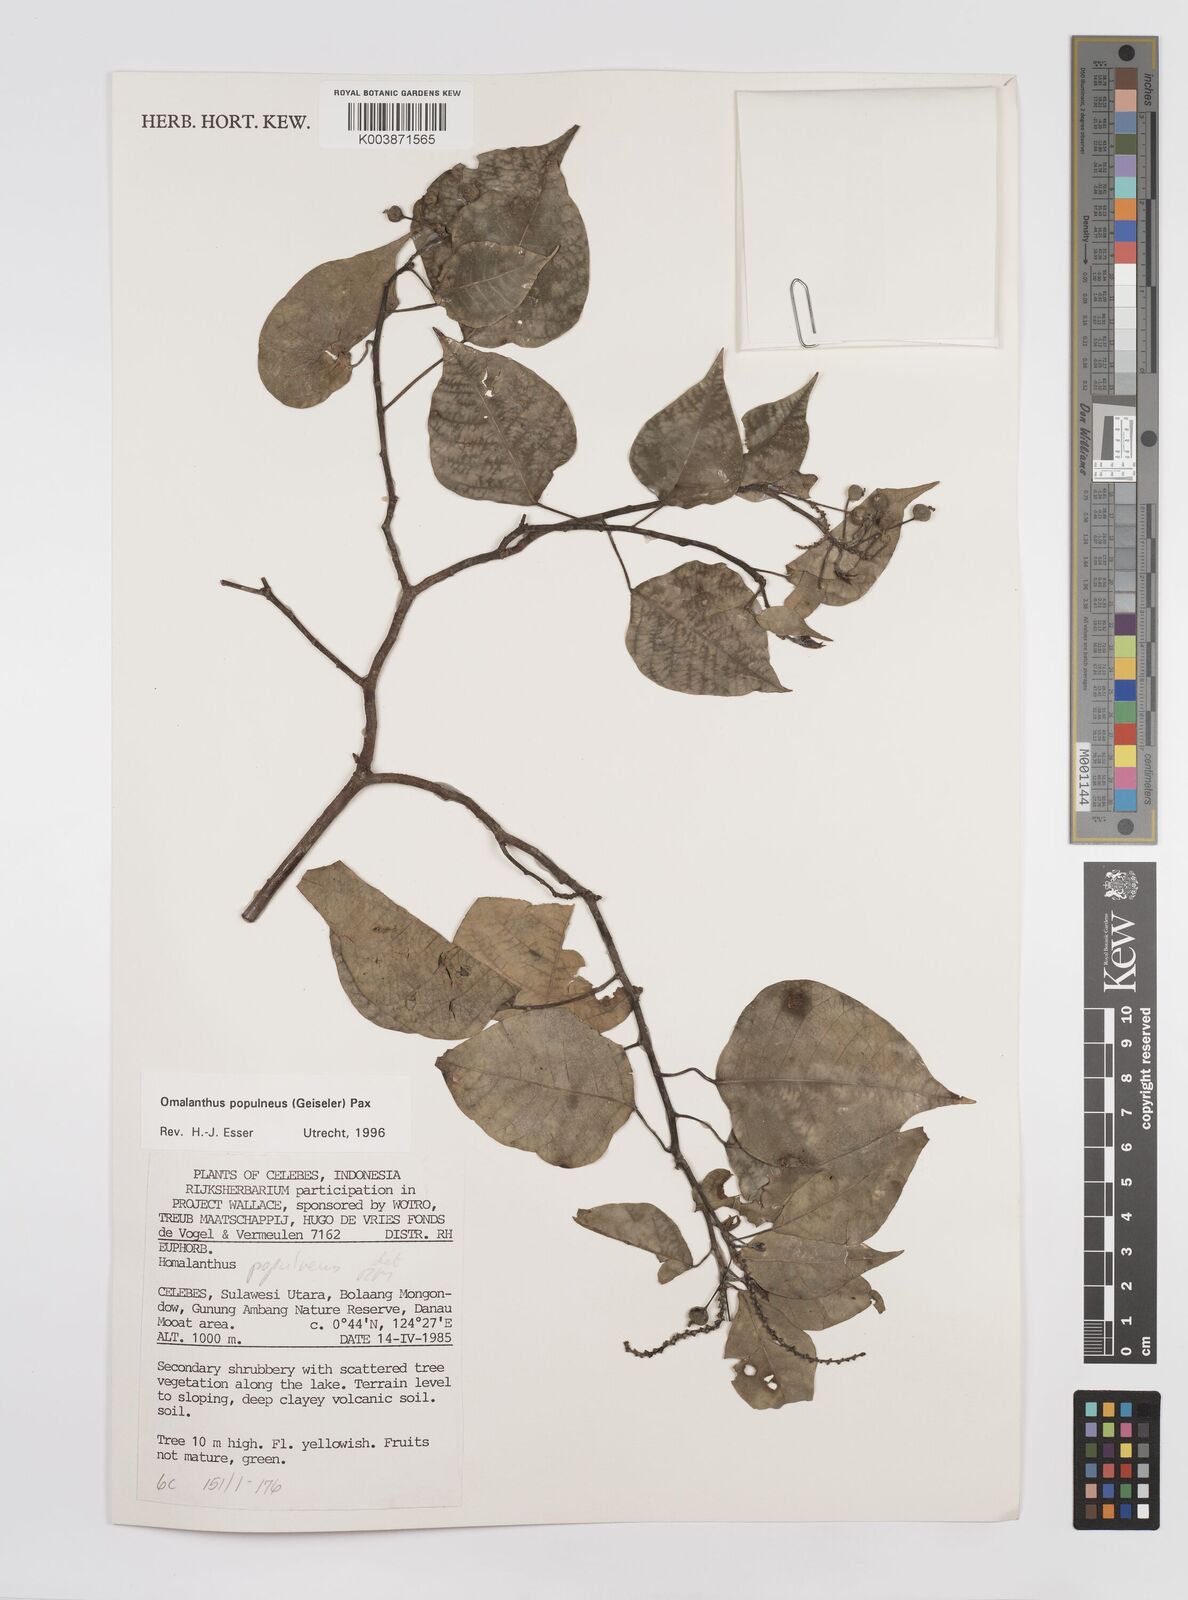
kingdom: Plantae
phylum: Tracheophyta
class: Magnoliopsida
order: Malpighiales
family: Euphorbiaceae
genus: Homalanthus
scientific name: Homalanthus populneus
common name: Spurge
